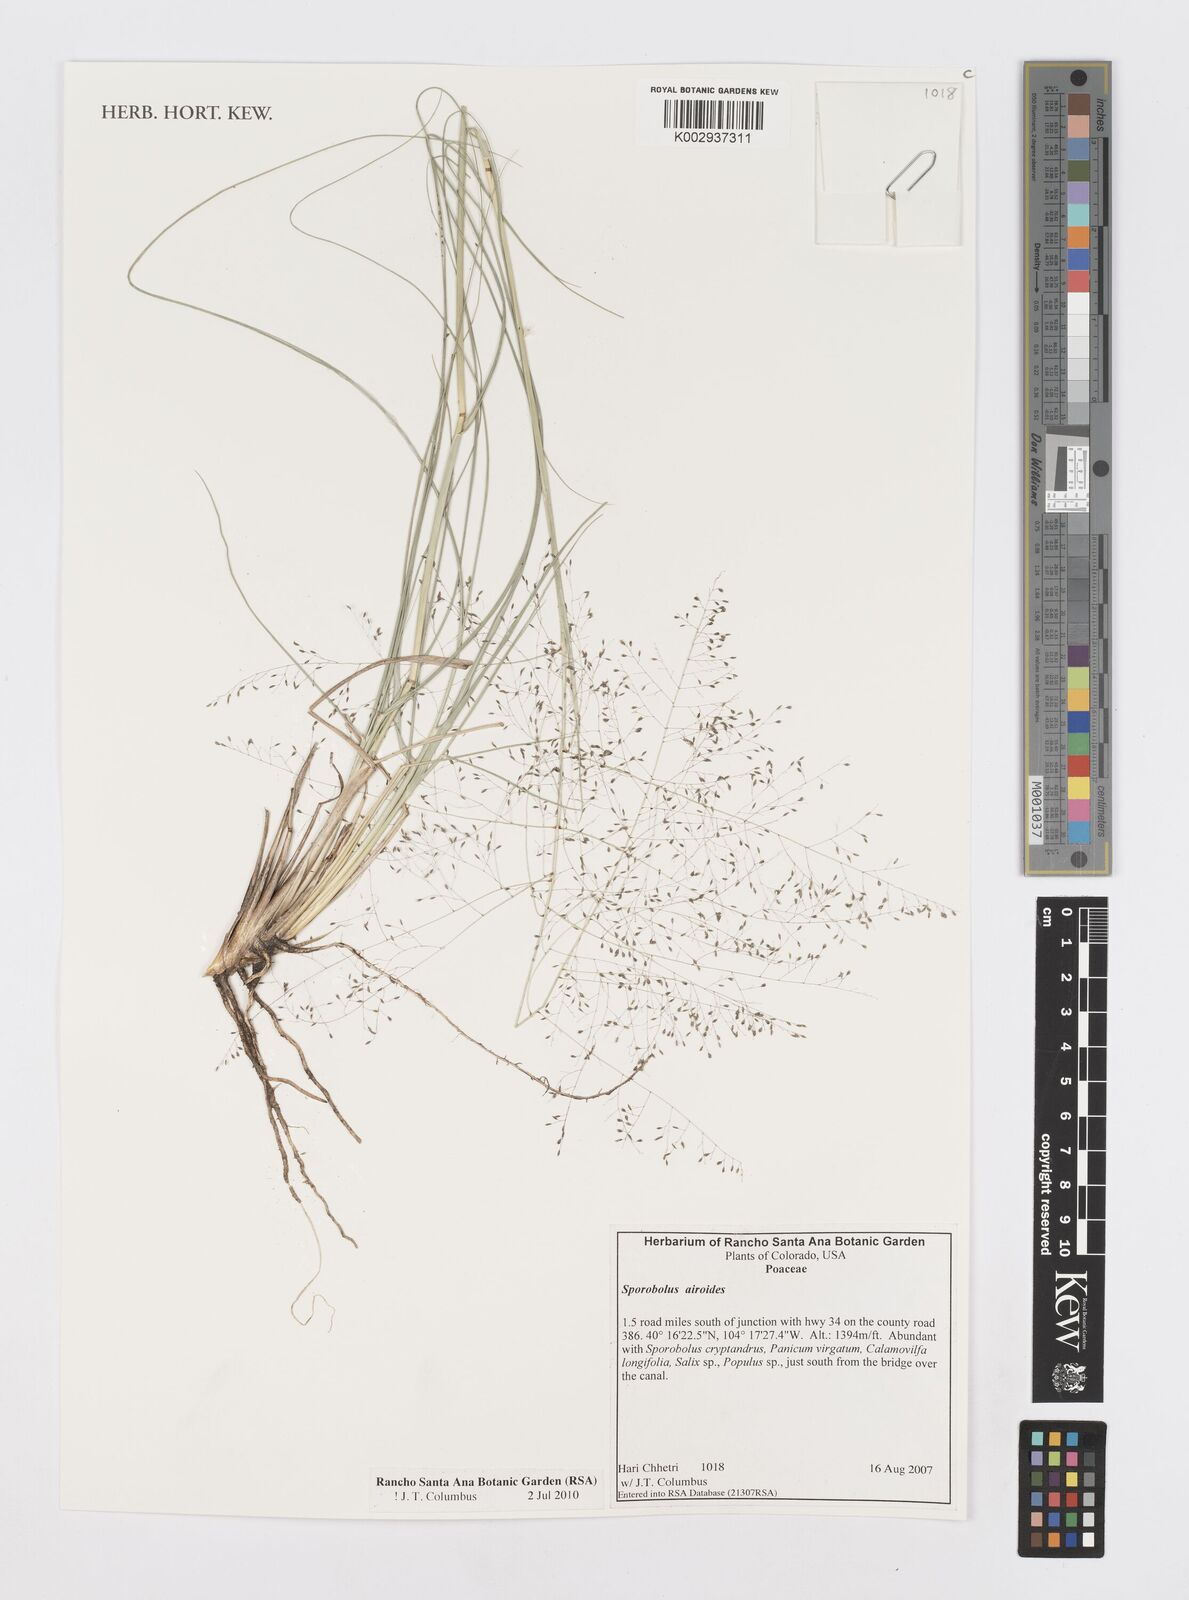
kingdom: Plantae
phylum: Tracheophyta
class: Liliopsida
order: Poales
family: Poaceae
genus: Sporobolus
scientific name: Sporobolus airoides
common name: Alkali sacaton
